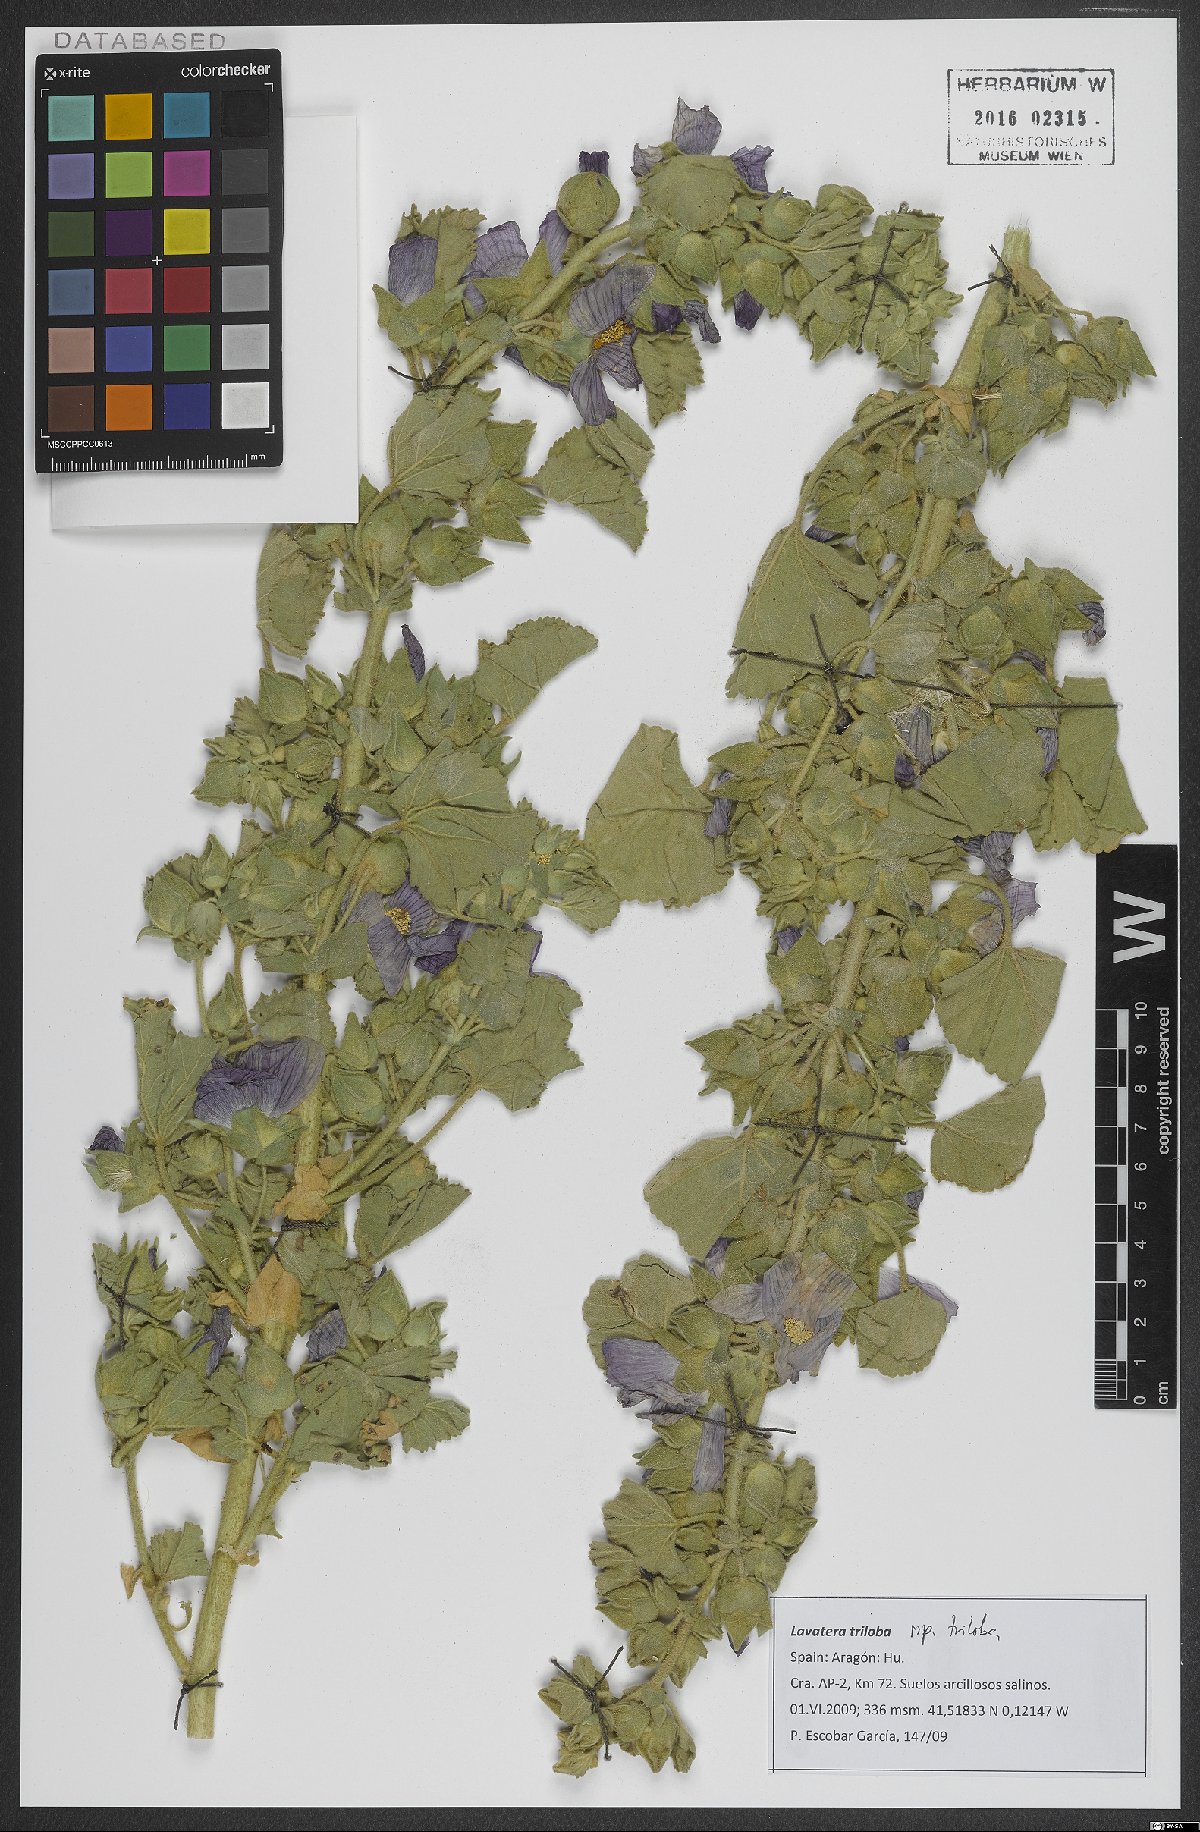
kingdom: Plantae
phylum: Tracheophyta
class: Magnoliopsida
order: Malvales
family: Malvaceae
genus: Malva
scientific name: Malva
